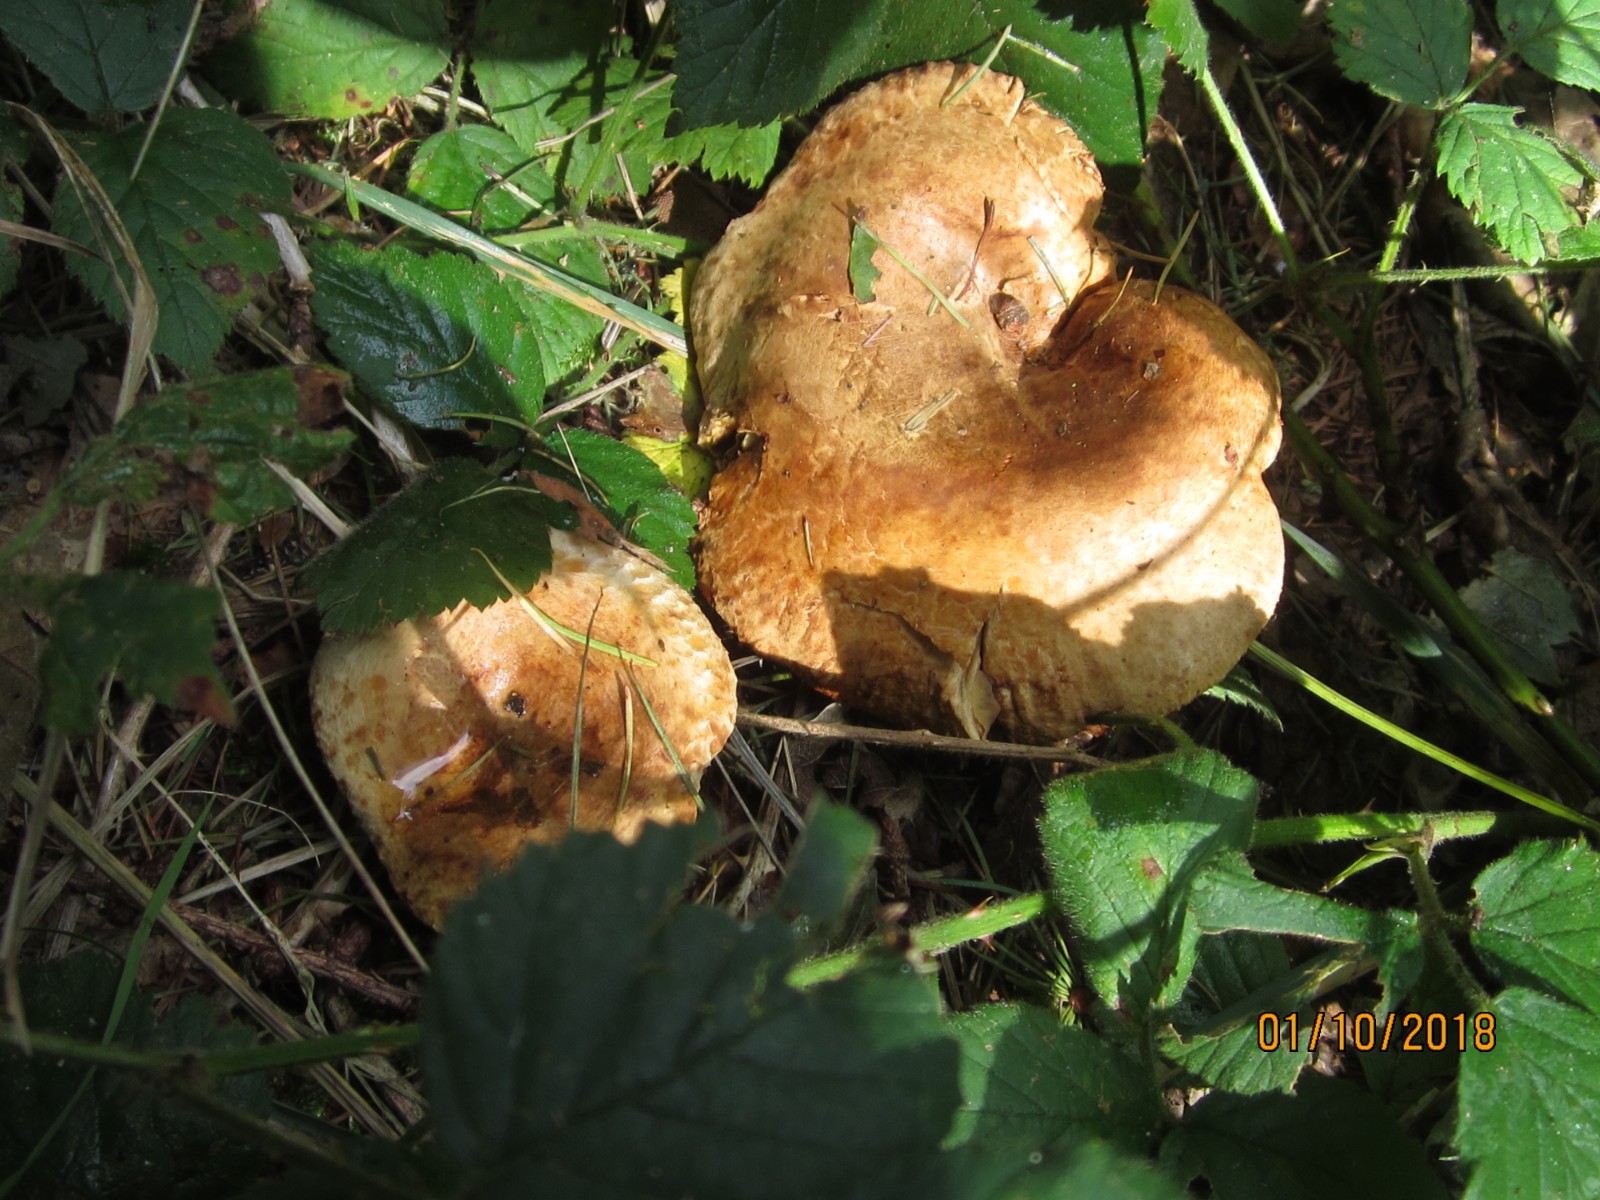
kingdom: Fungi
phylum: Basidiomycota
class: Agaricomycetes
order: Boletales
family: Paxillaceae
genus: Paxillus
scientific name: Paxillus involutus
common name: almindelig netbladhat
